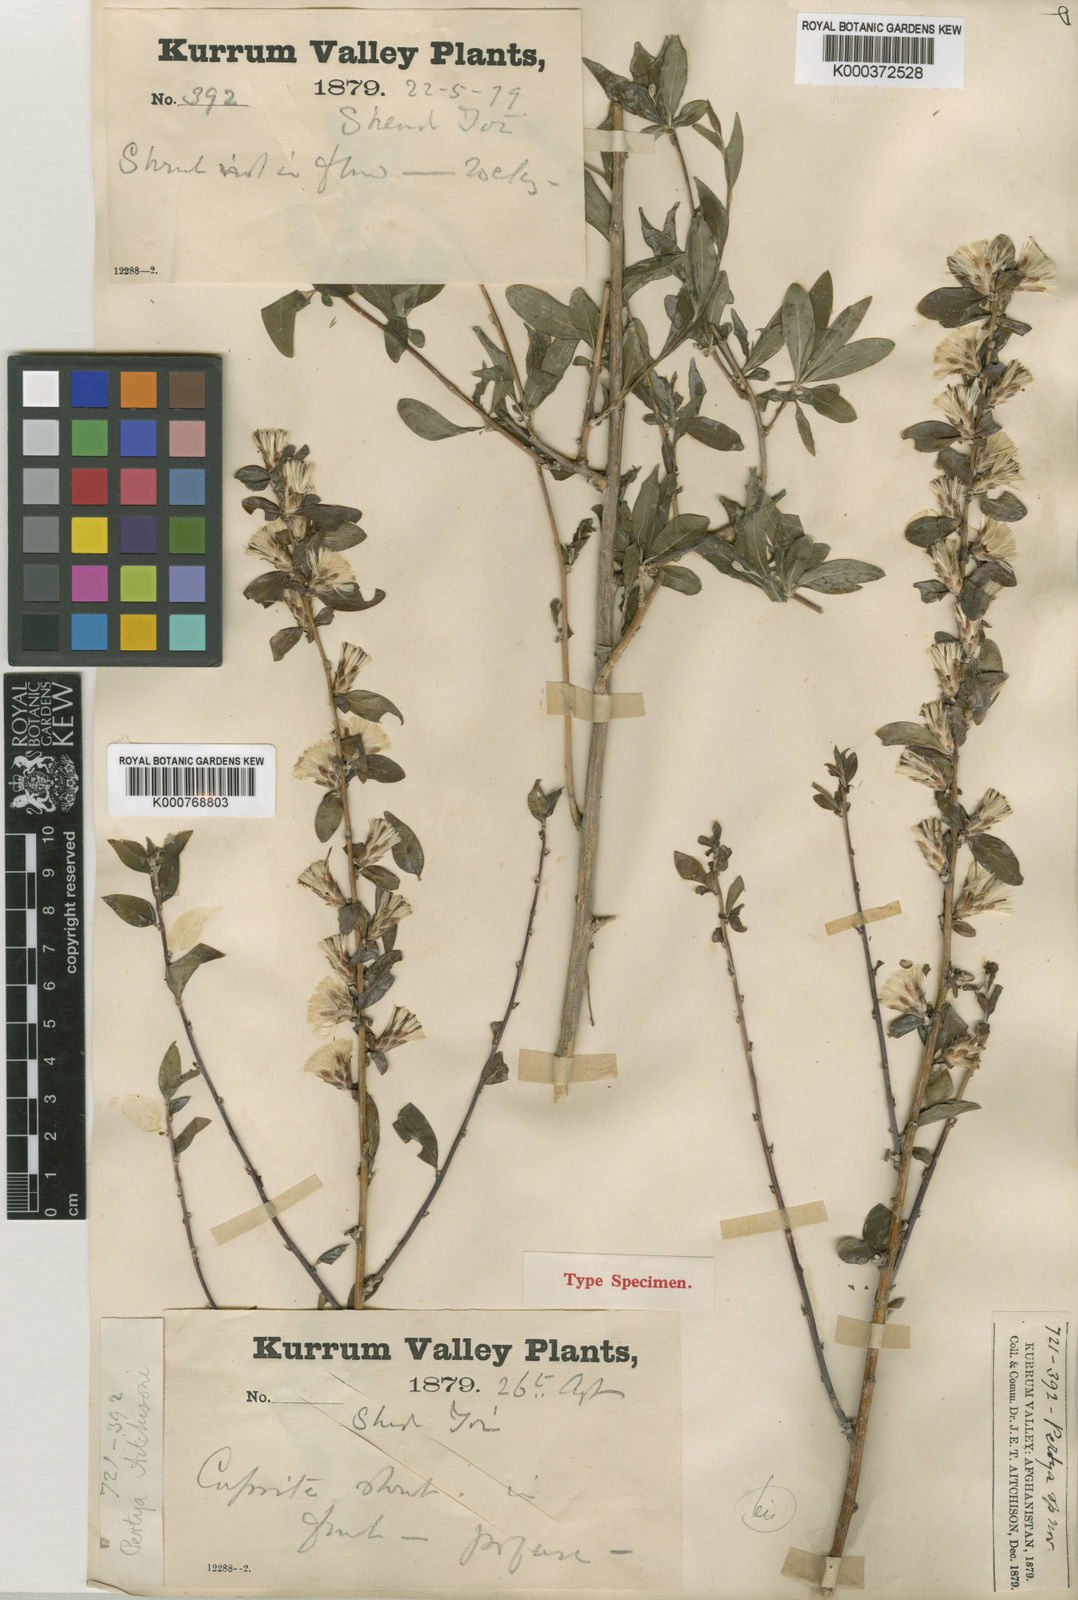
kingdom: Plantae
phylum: Tracheophyta
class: Magnoliopsida
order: Asterales
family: Asteraceae
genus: Pertya
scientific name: Pertya aitchisonii
